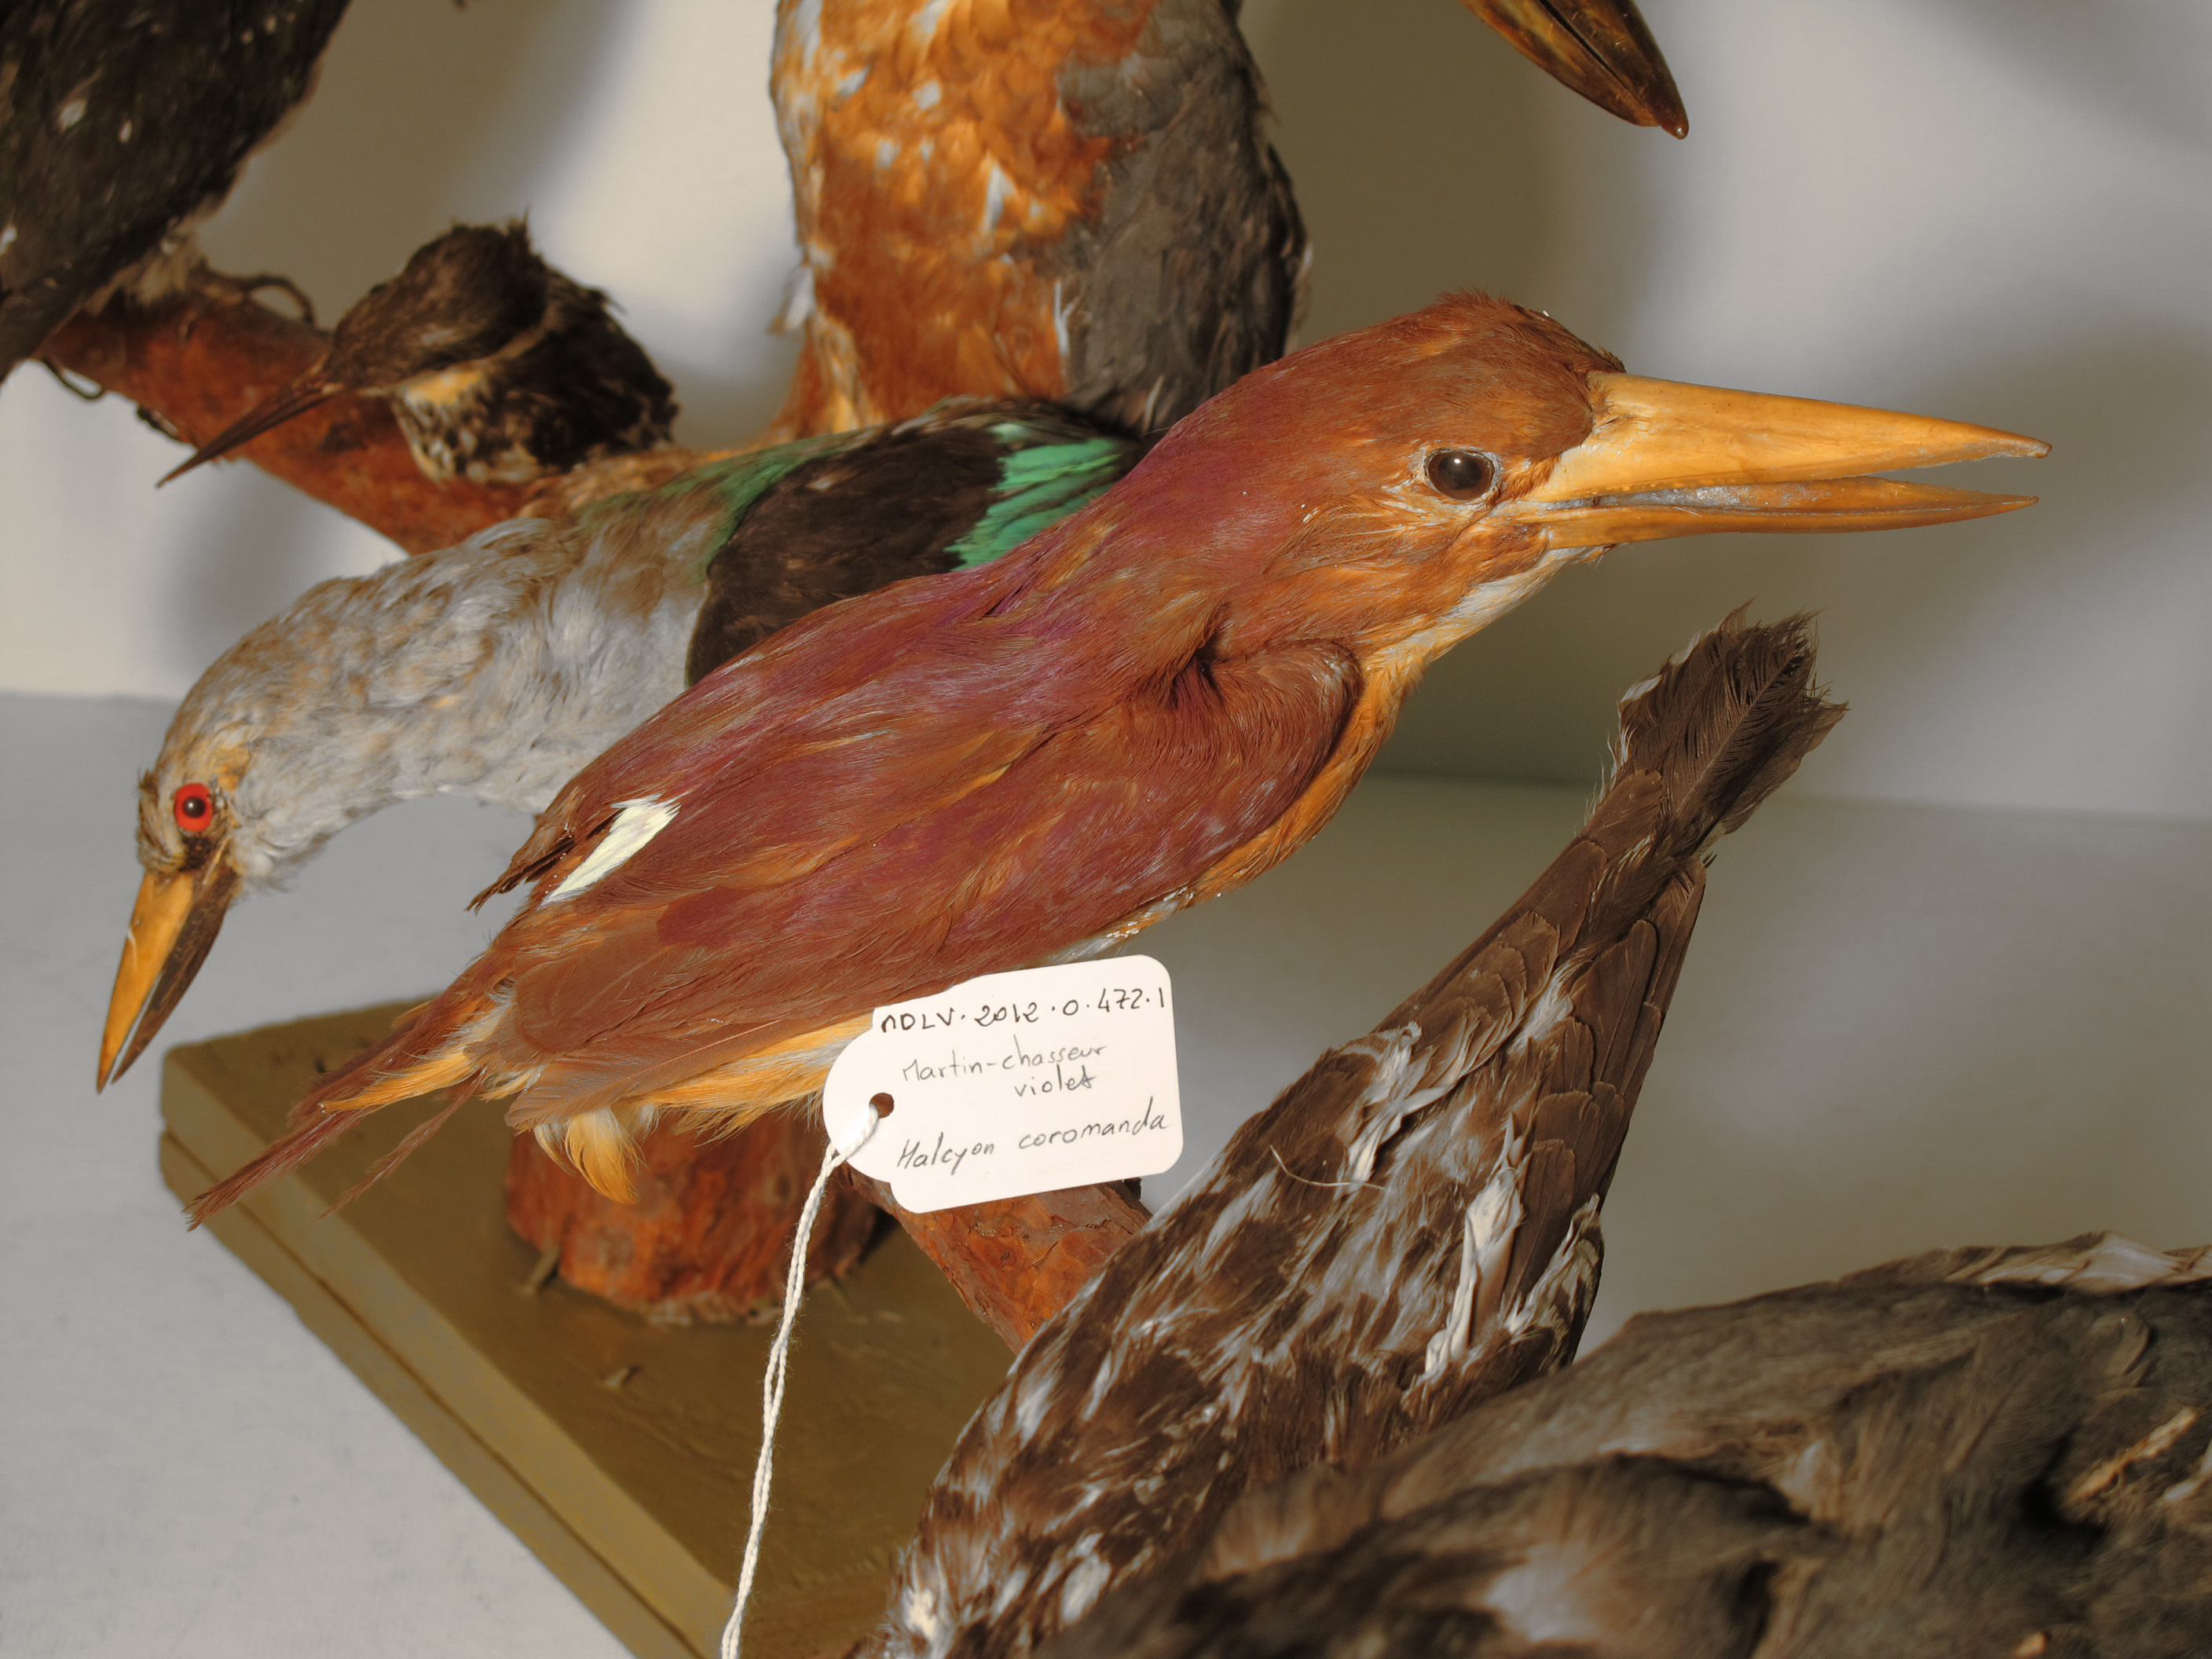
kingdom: Animalia
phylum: Chordata
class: Aves
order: Coraciiformes
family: Alcedinidae
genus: Halcyon
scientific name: Halcyon coromanda
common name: Ruddy Kingfisher
